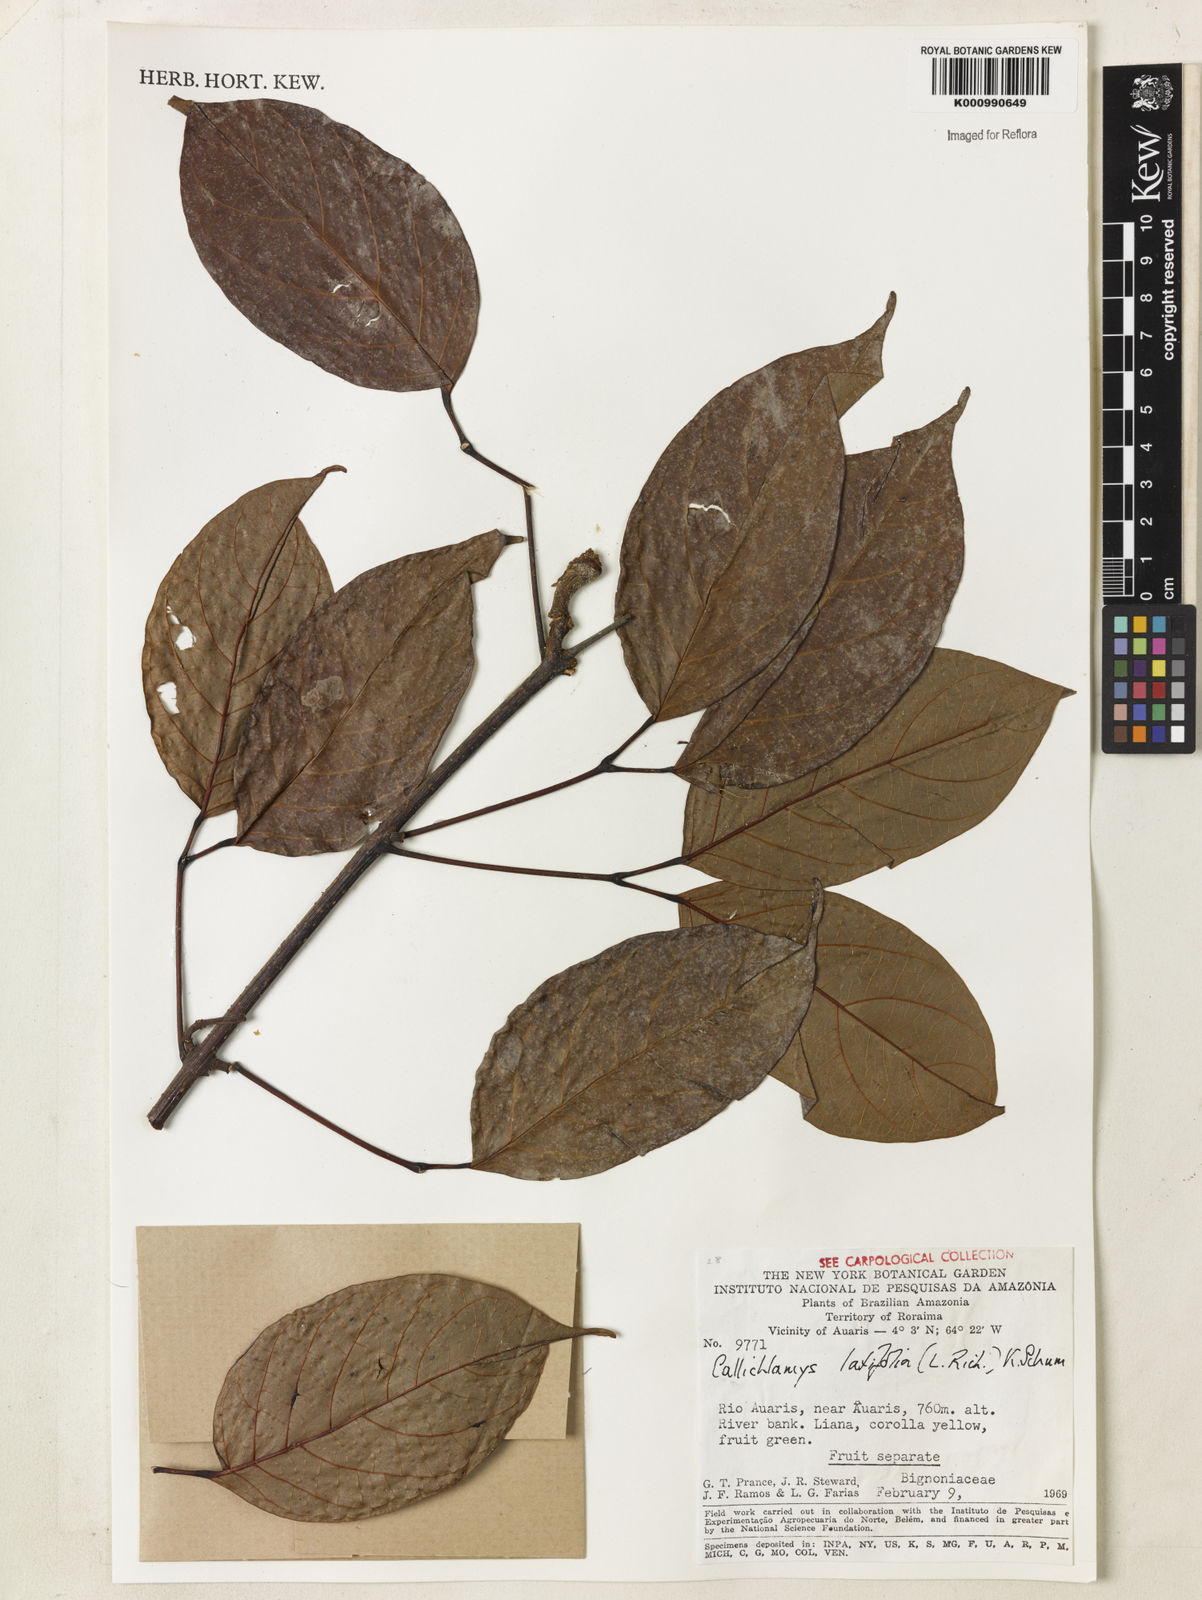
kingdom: Plantae
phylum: Tracheophyta
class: Magnoliopsida
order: Lamiales
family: Bignoniaceae
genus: Callichlamys
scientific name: Callichlamys latifolia
